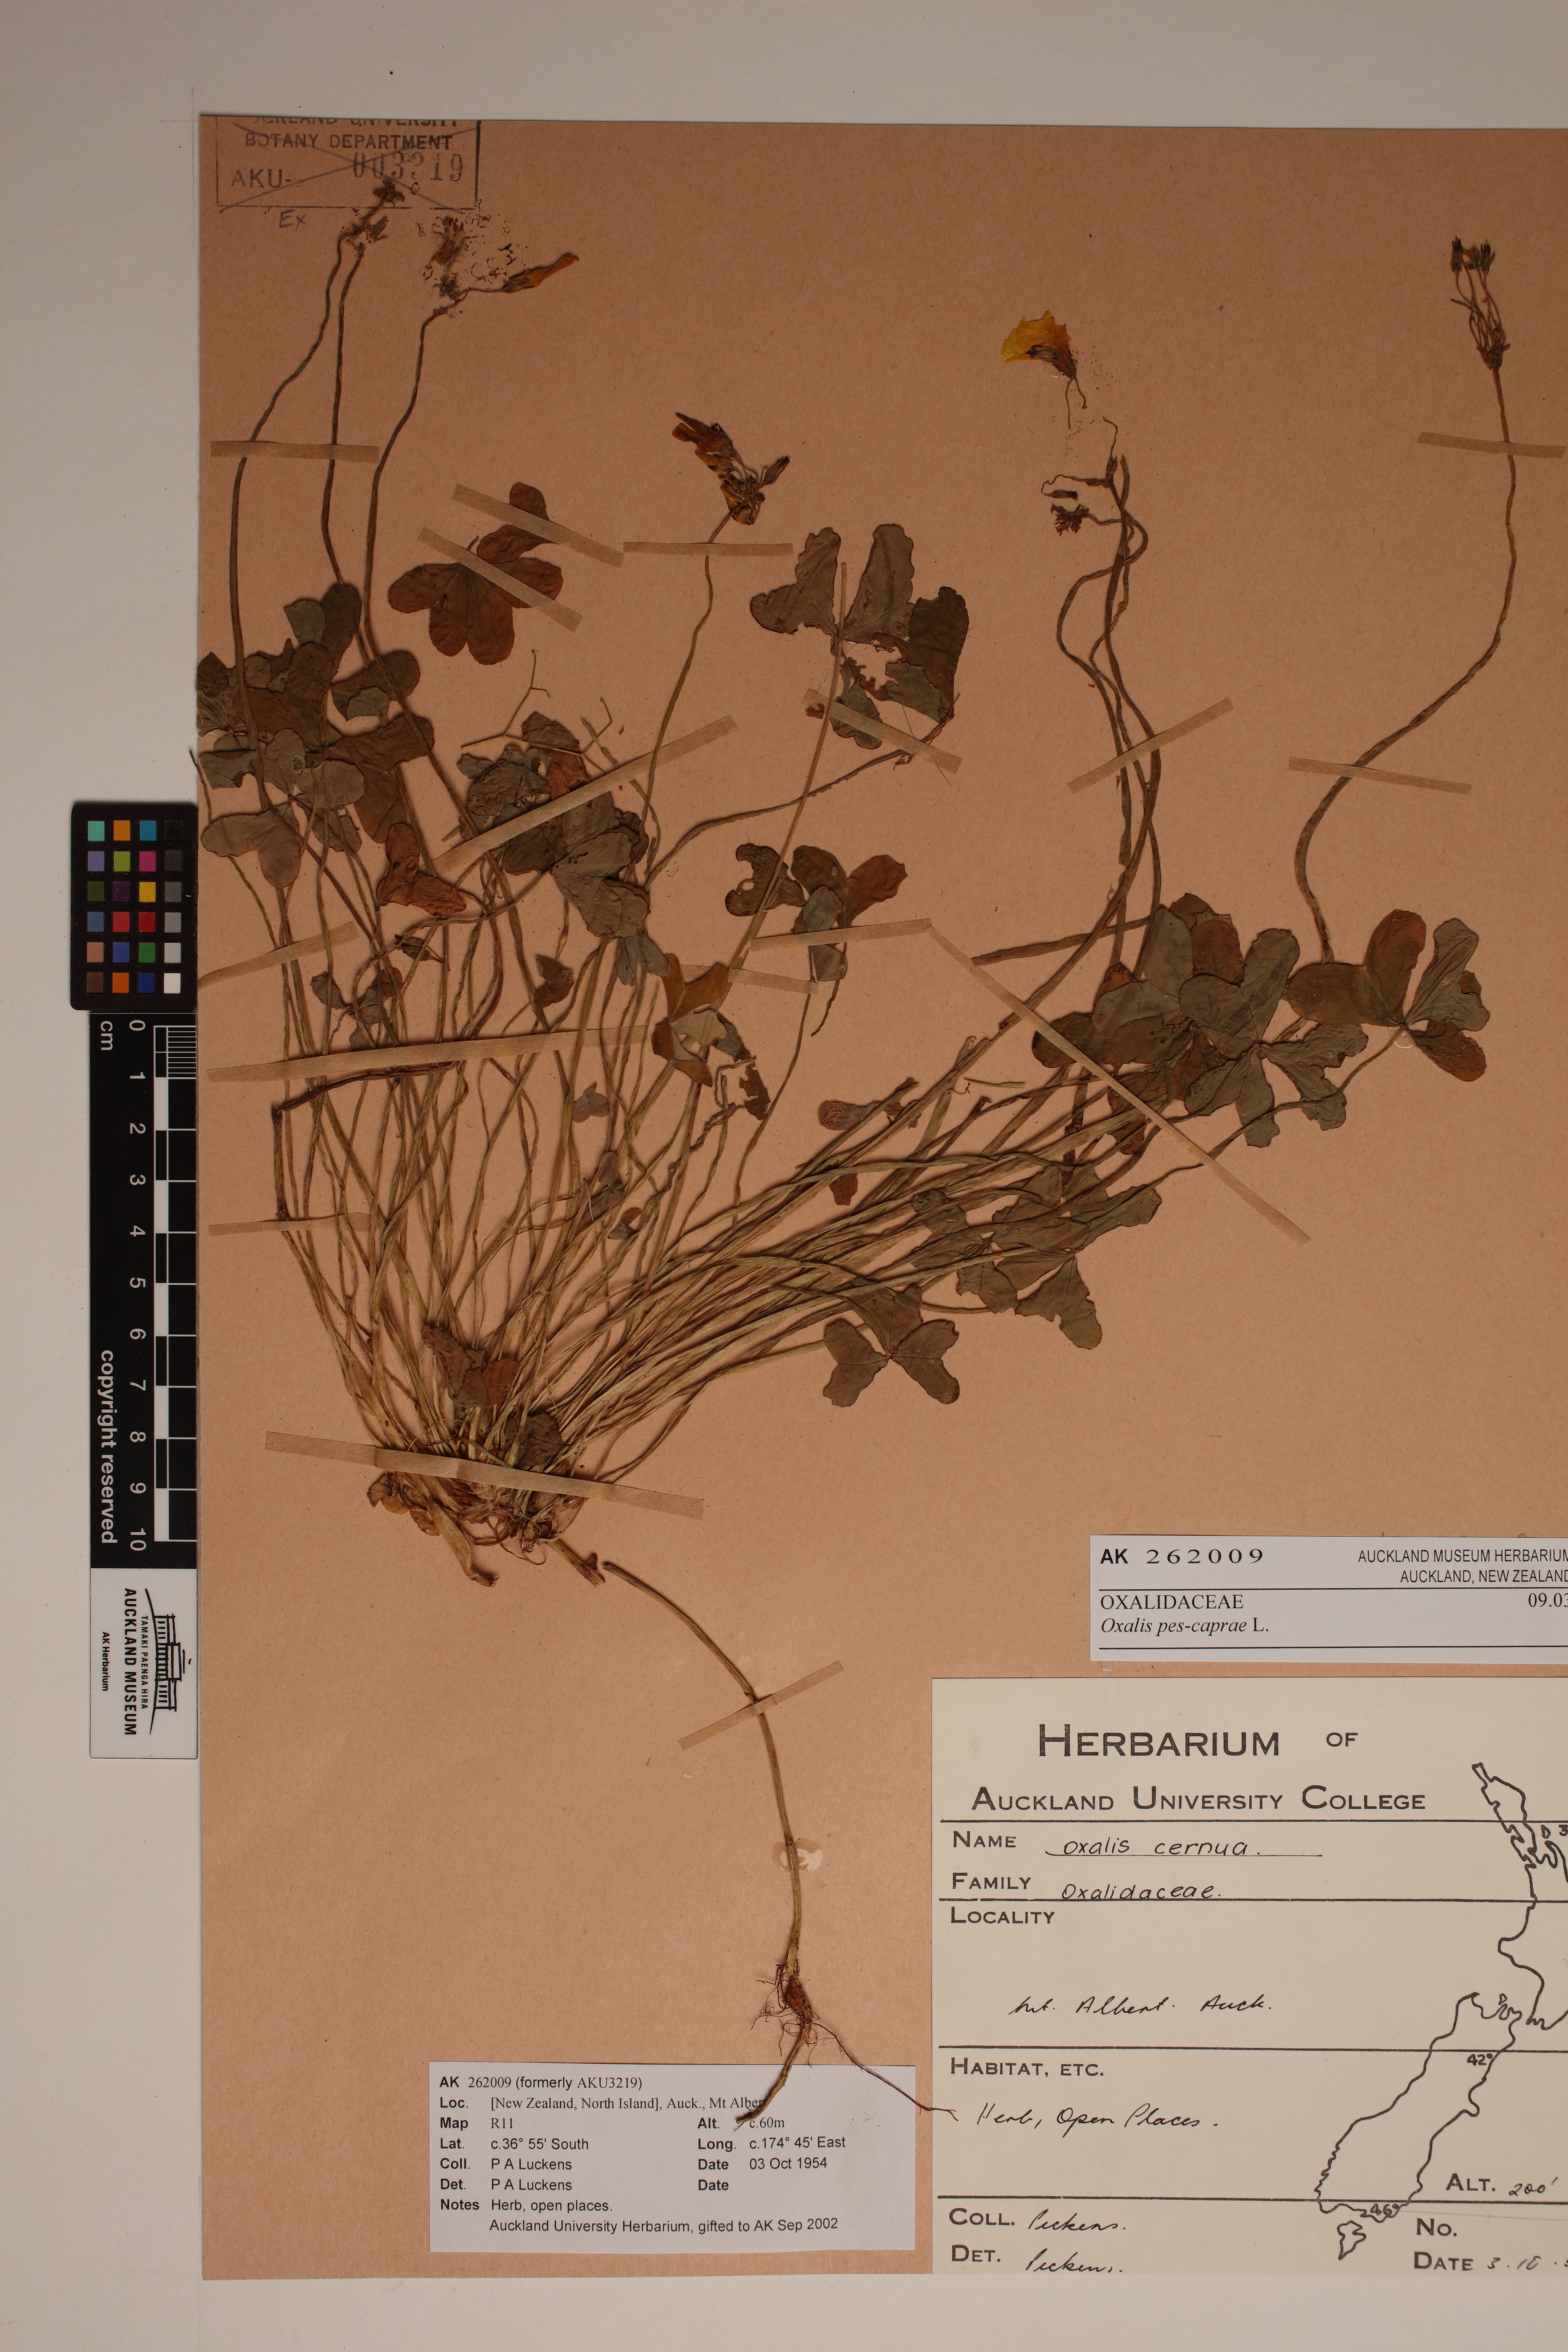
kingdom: Plantae
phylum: Tracheophyta
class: Magnoliopsida
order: Oxalidales
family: Oxalidaceae
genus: Oxalis
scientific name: Oxalis pes-caprae
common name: Bermuda-buttercup
